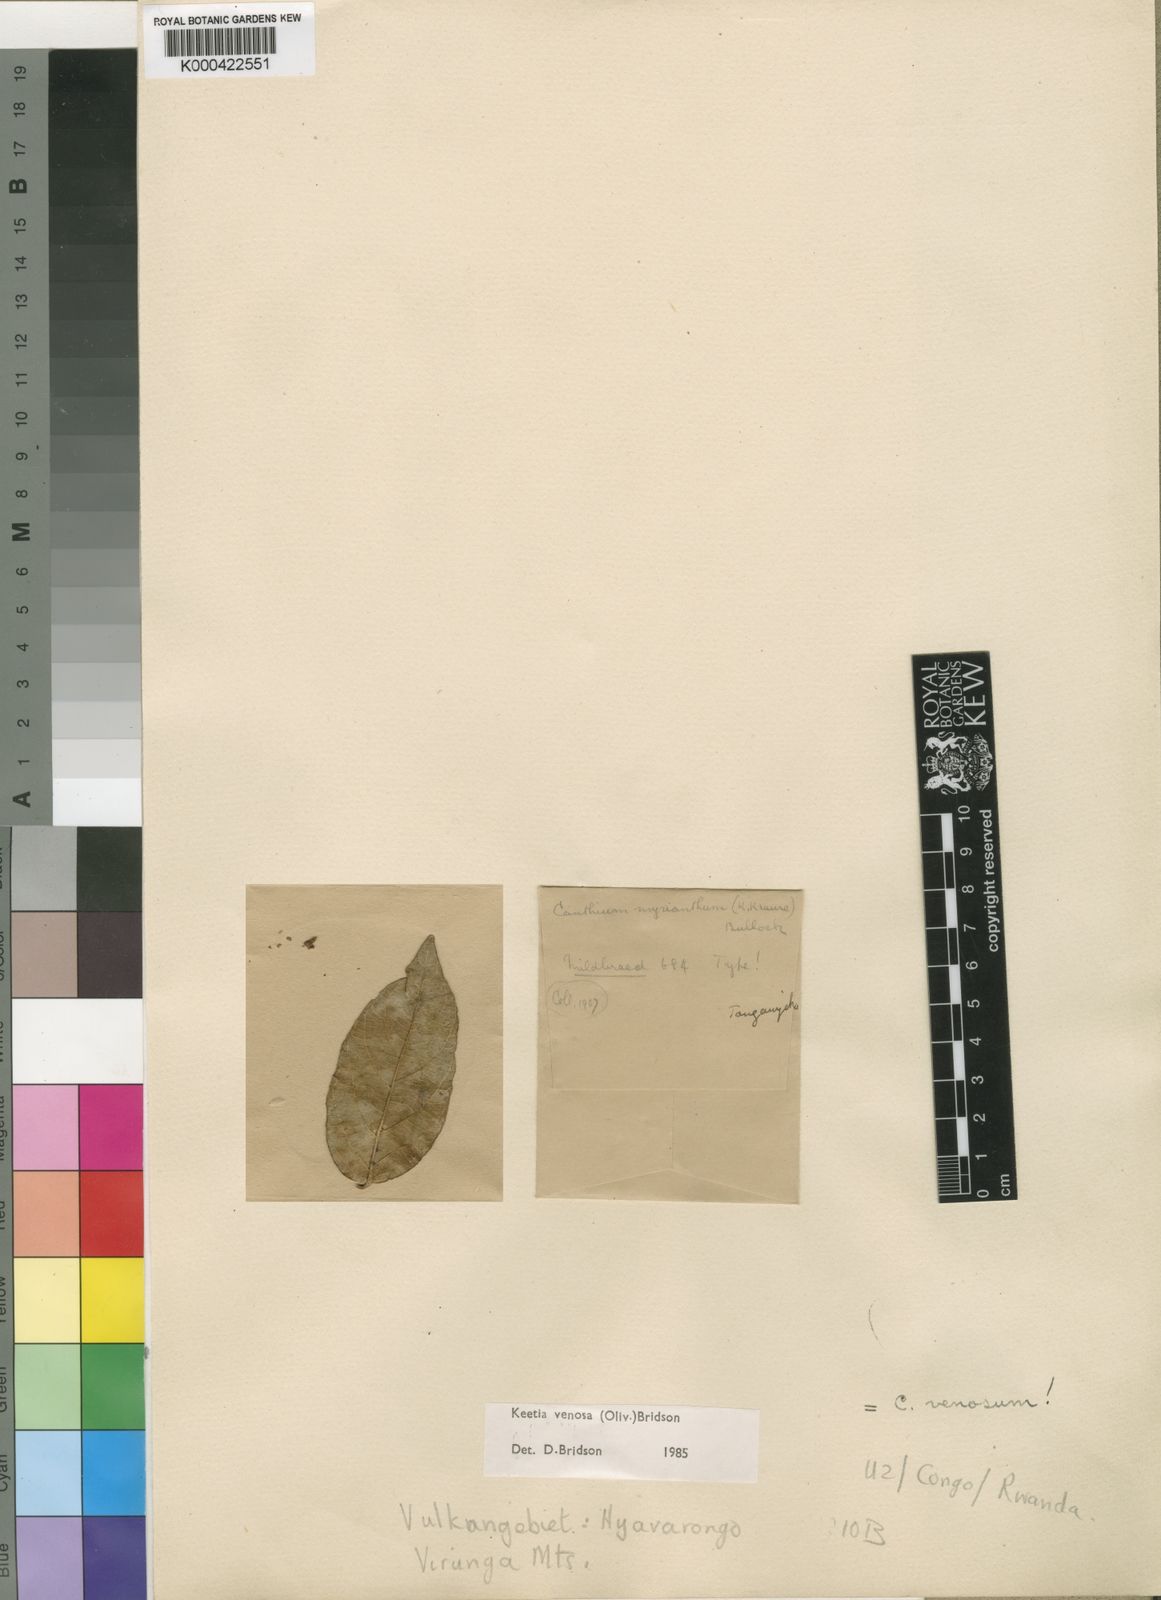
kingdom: Plantae
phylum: Tracheophyta
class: Magnoliopsida
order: Gentianales
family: Rubiaceae
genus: Keetia
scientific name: Keetia venosa
